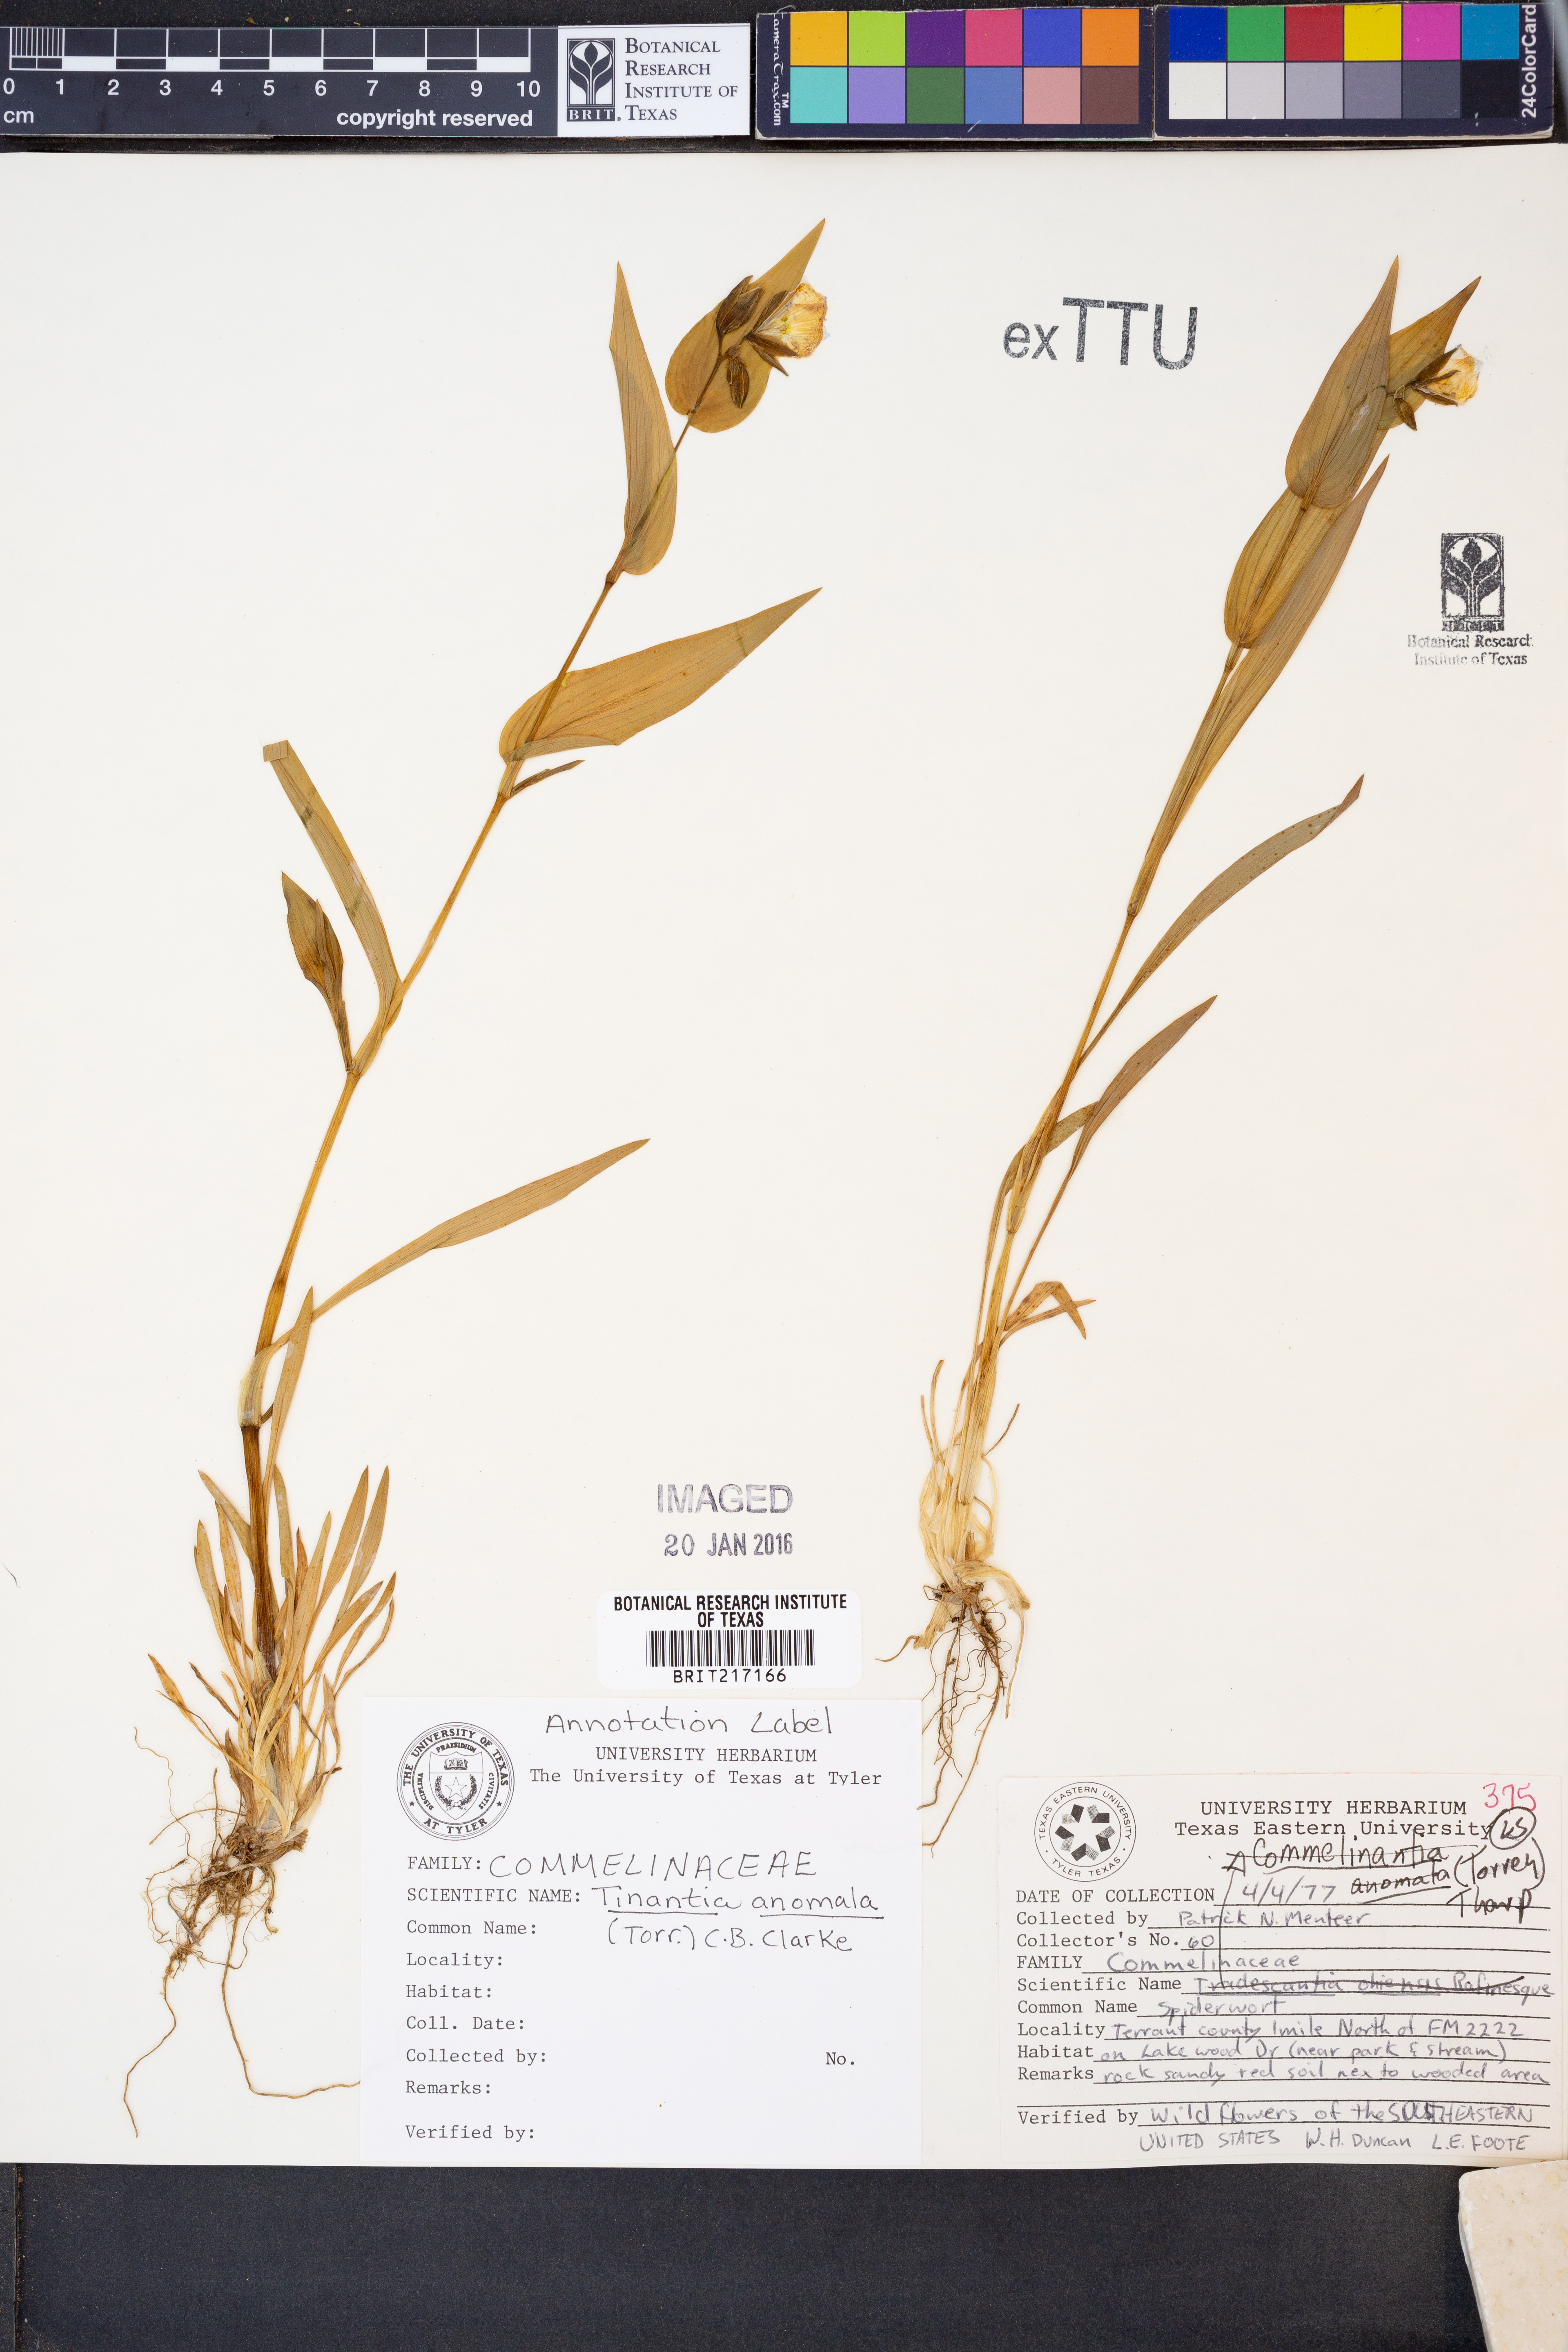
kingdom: Plantae
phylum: Tracheophyta
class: Liliopsida
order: Commelinales
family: Commelinaceae
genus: Tinantia
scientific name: Tinantia anomala
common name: False dayflower
